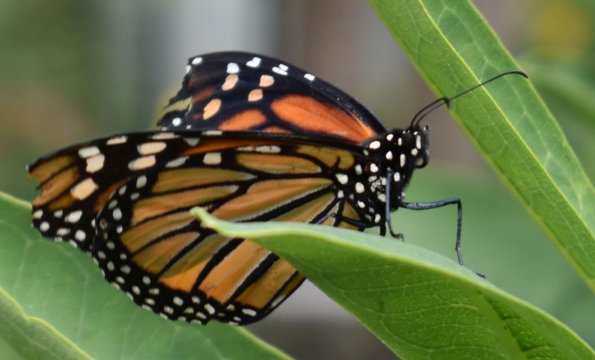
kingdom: Animalia
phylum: Arthropoda
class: Insecta
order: Lepidoptera
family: Nymphalidae
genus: Danaus
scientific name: Danaus plexippus
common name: Monarch
